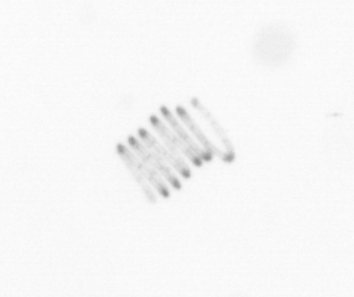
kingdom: Chromista
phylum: Ochrophyta
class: Bacillariophyceae
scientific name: Bacillariophyceae
